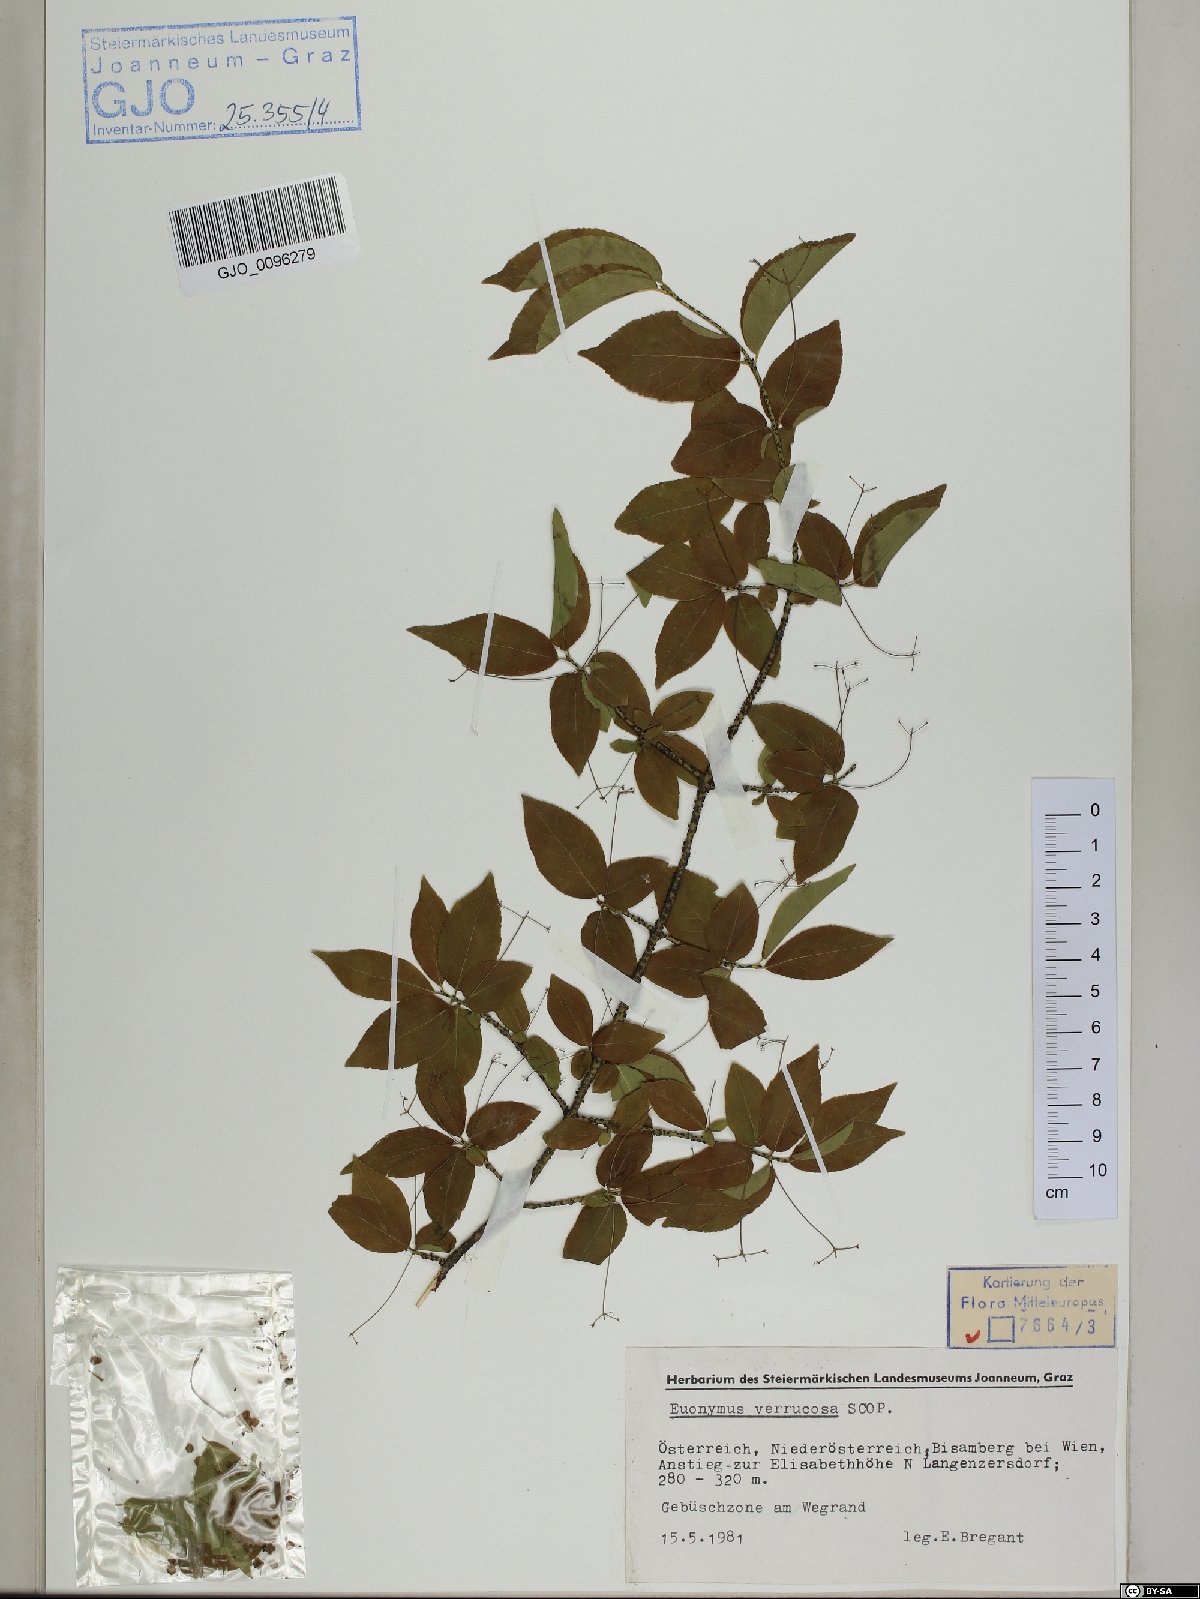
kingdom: Plantae
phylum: Tracheophyta
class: Magnoliopsida
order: Celastrales
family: Celastraceae
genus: Euonymus
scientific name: Euonymus verrucosus
